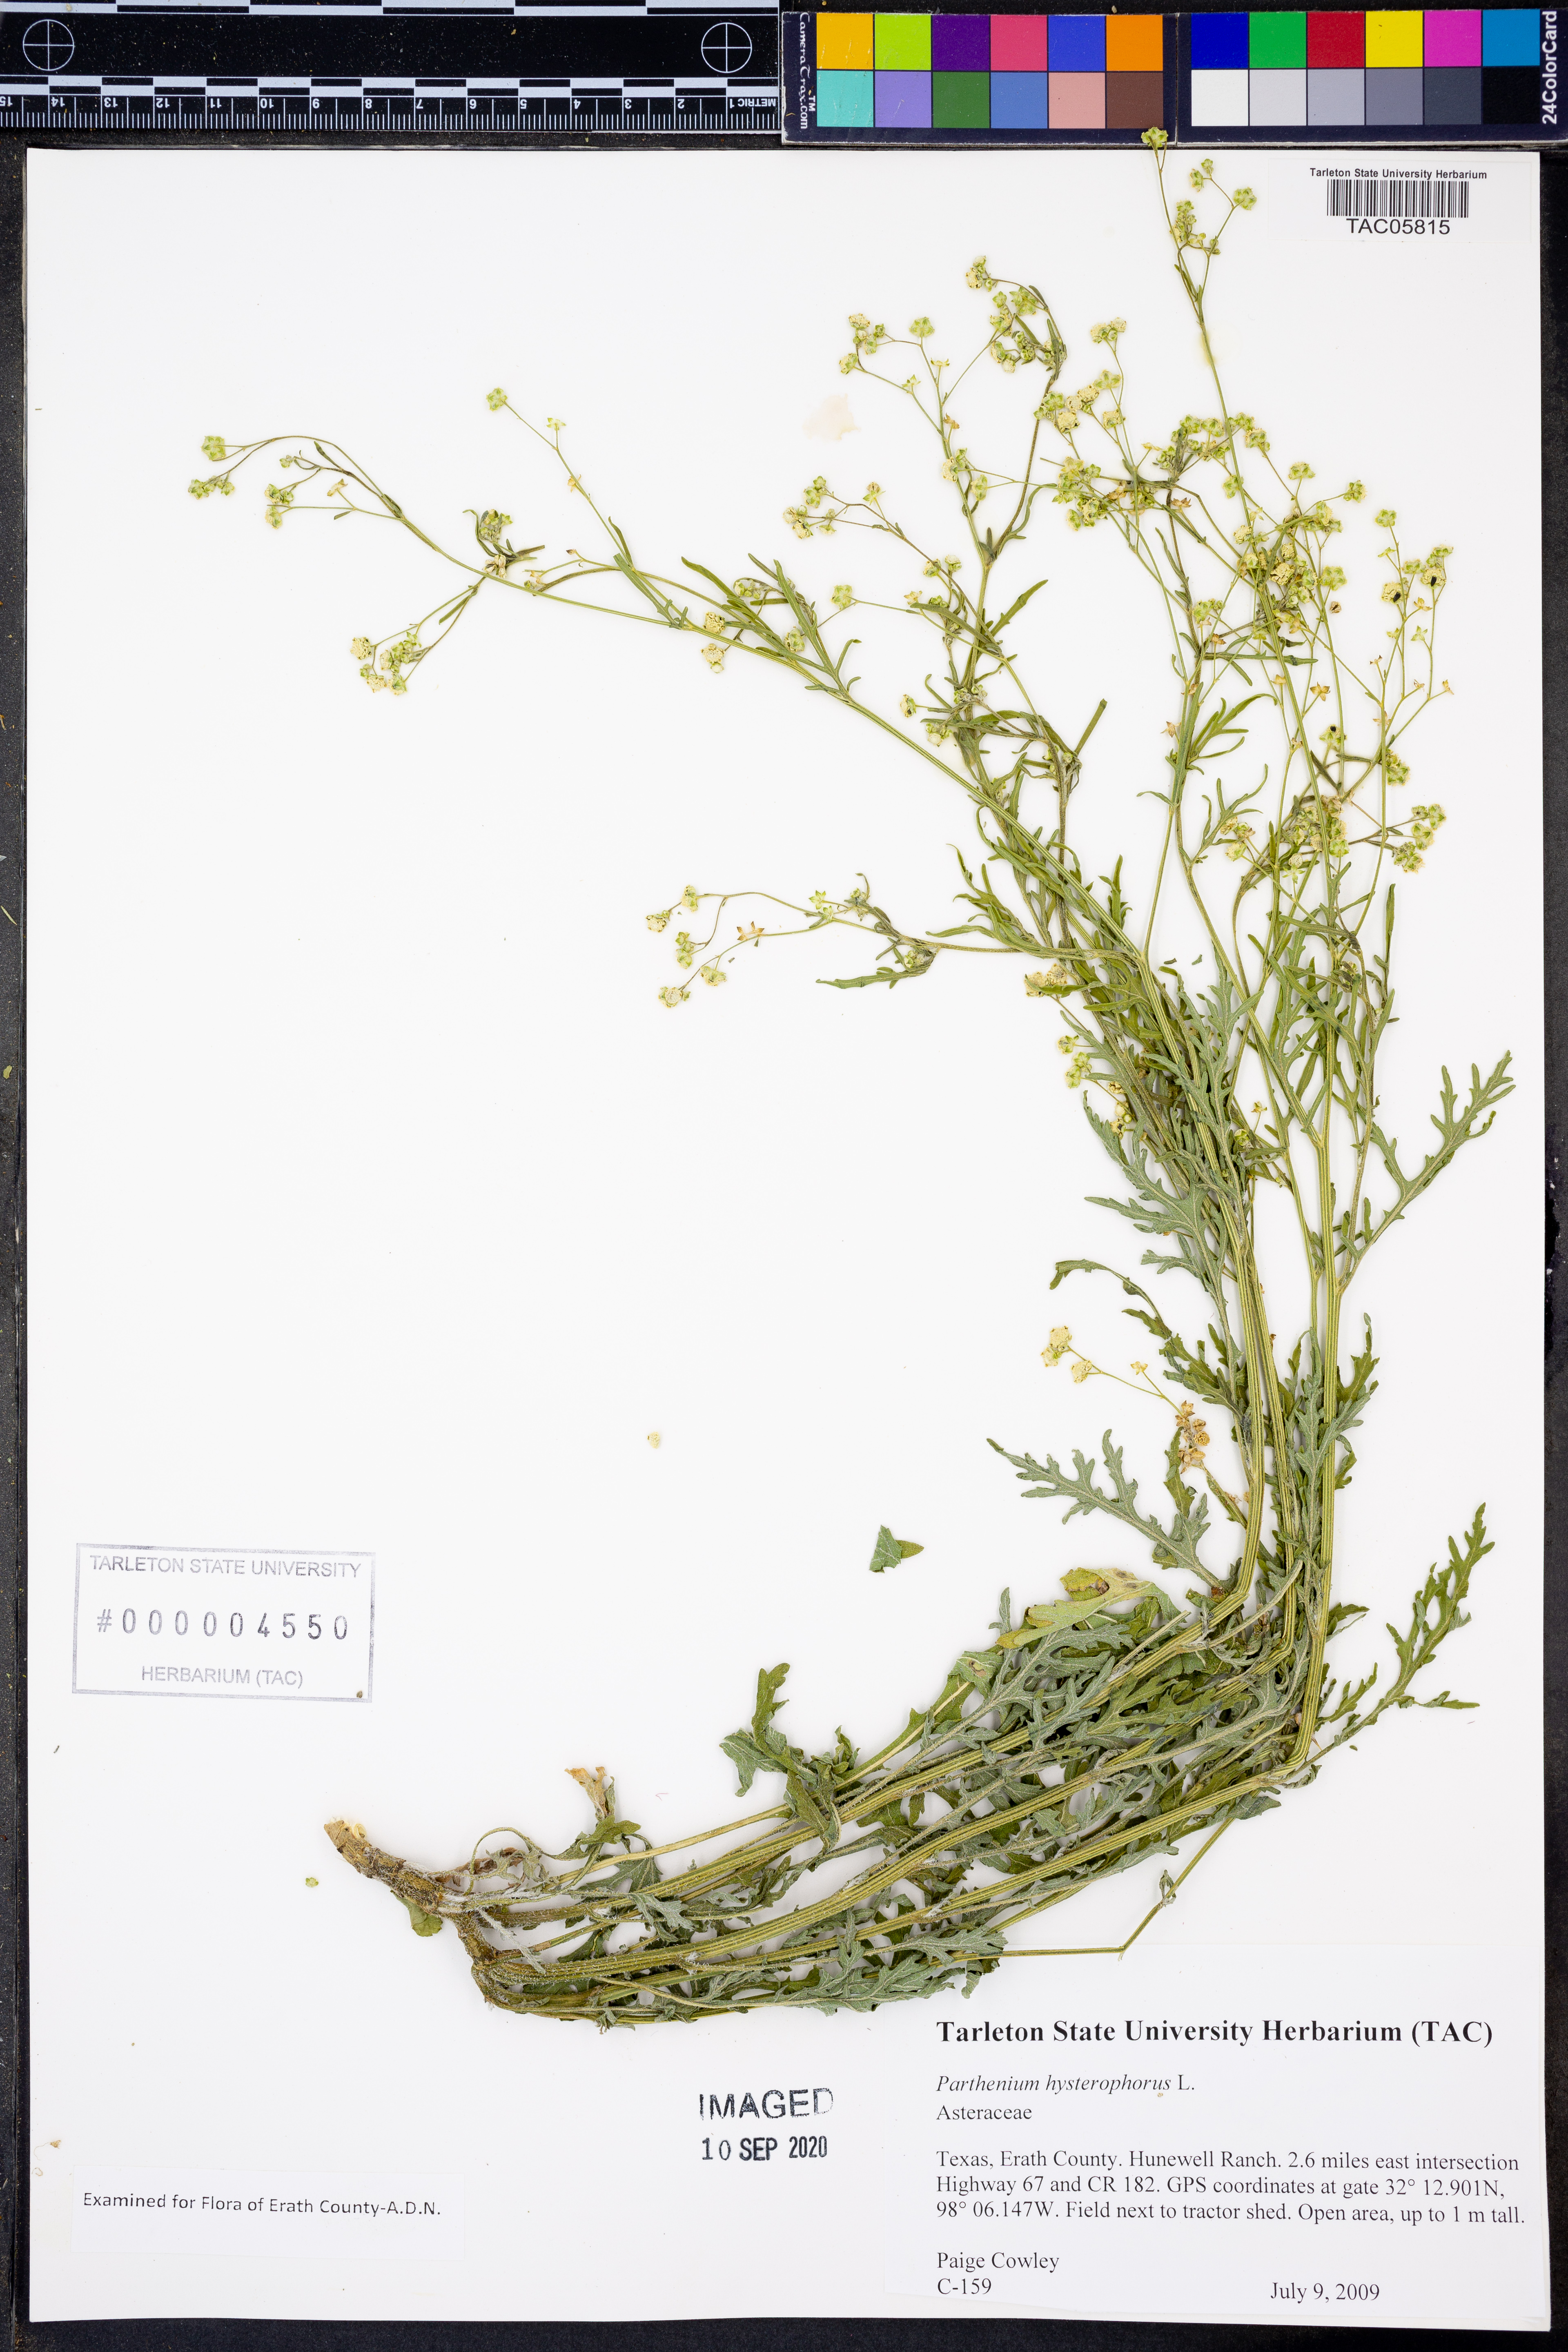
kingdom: Plantae
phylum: Tracheophyta
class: Magnoliopsida
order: Asterales
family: Asteraceae
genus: Parthenium
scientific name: Parthenium hysterophorus
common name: Santa maria feverfew
